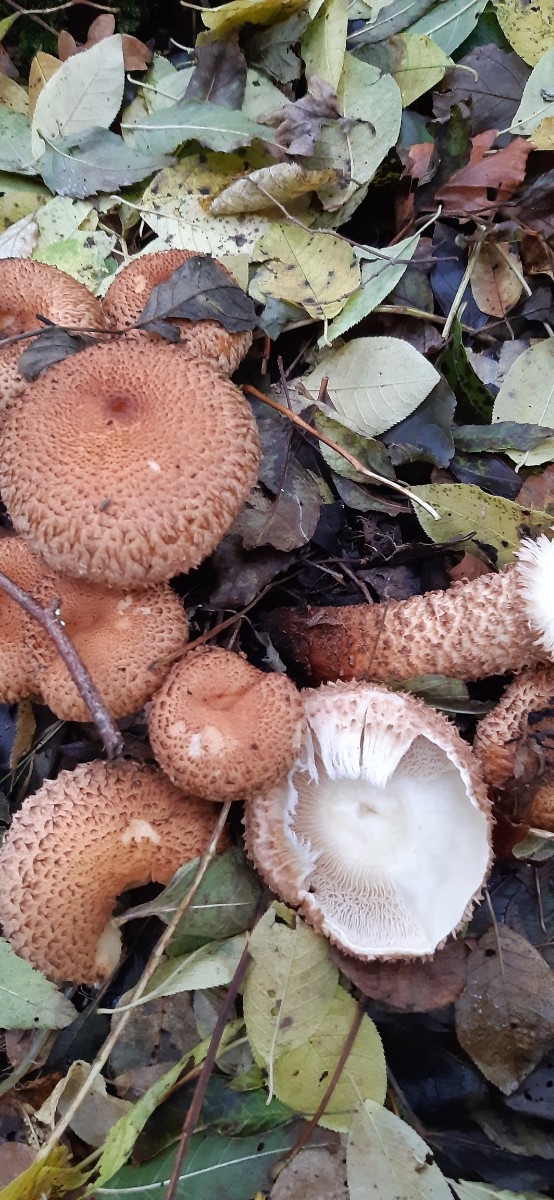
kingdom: Fungi
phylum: Basidiomycota
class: Agaricomycetes
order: Agaricales
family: Strophariaceae
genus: Pholiota
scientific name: Pholiota squarrosa
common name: krumskællet skælhat
